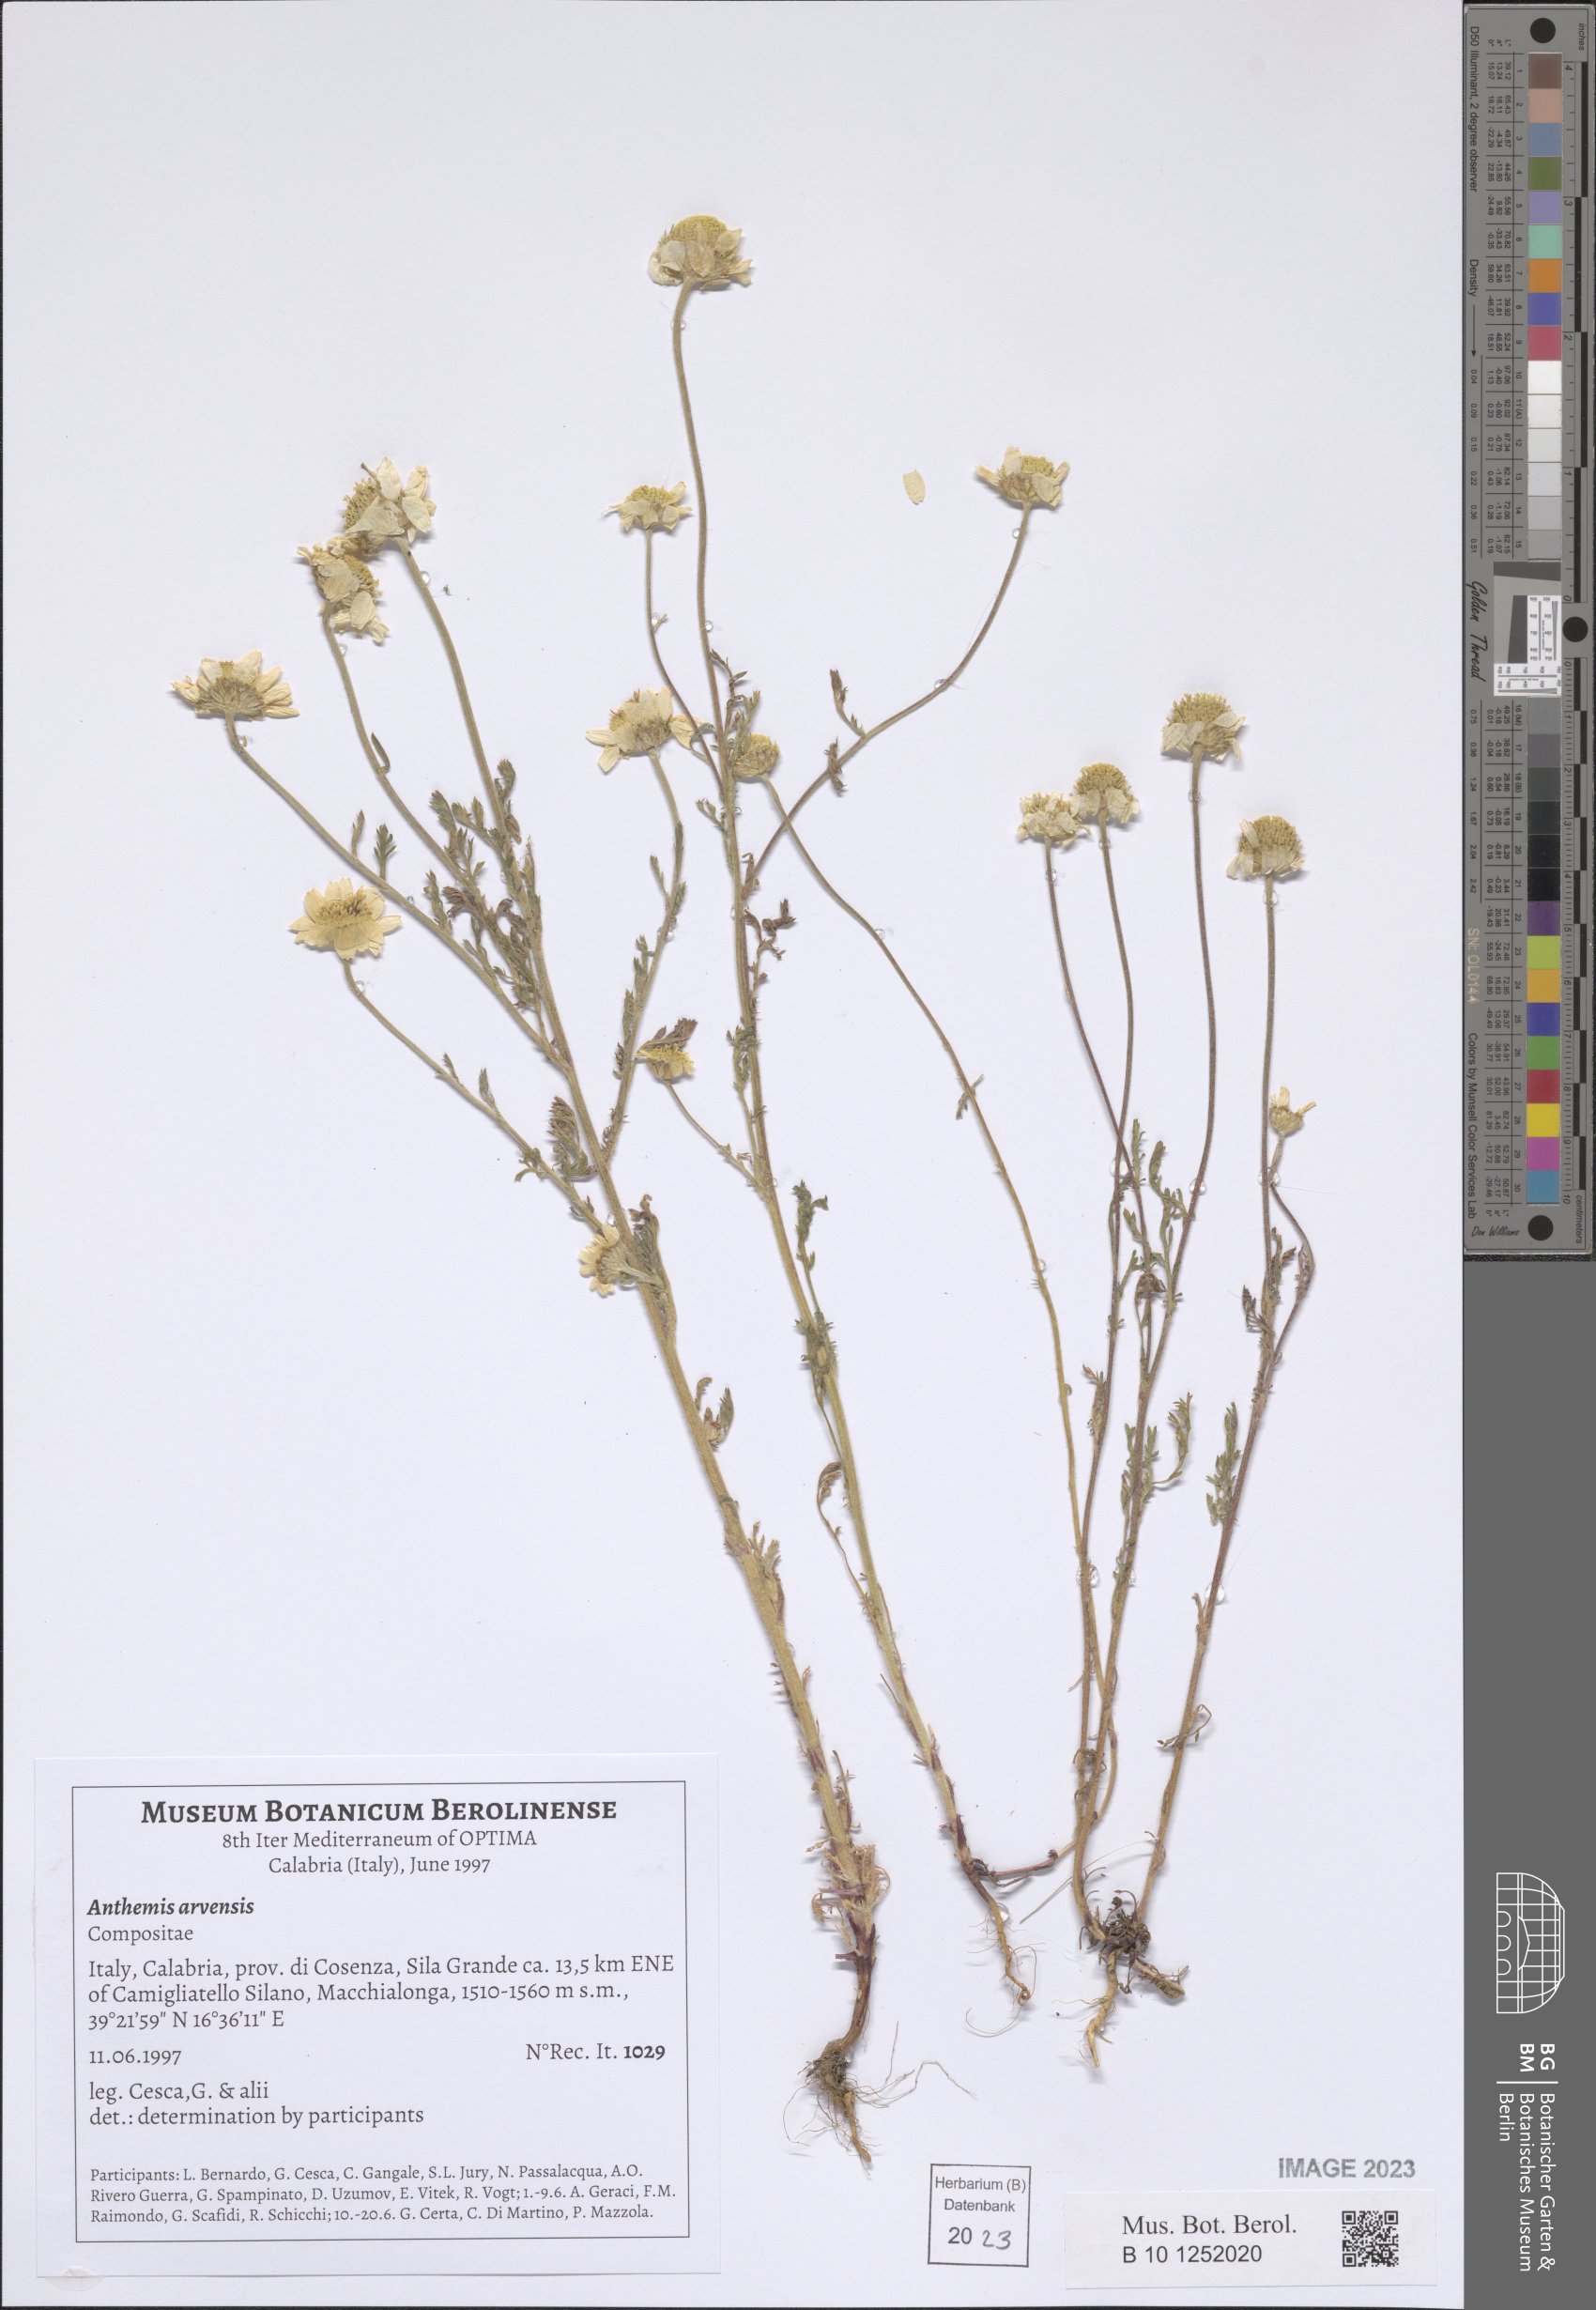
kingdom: Plantae
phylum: Tracheophyta
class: Magnoliopsida
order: Asterales
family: Asteraceae
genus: Anthemis
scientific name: Anthemis arvensis
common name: Corn chamomile
